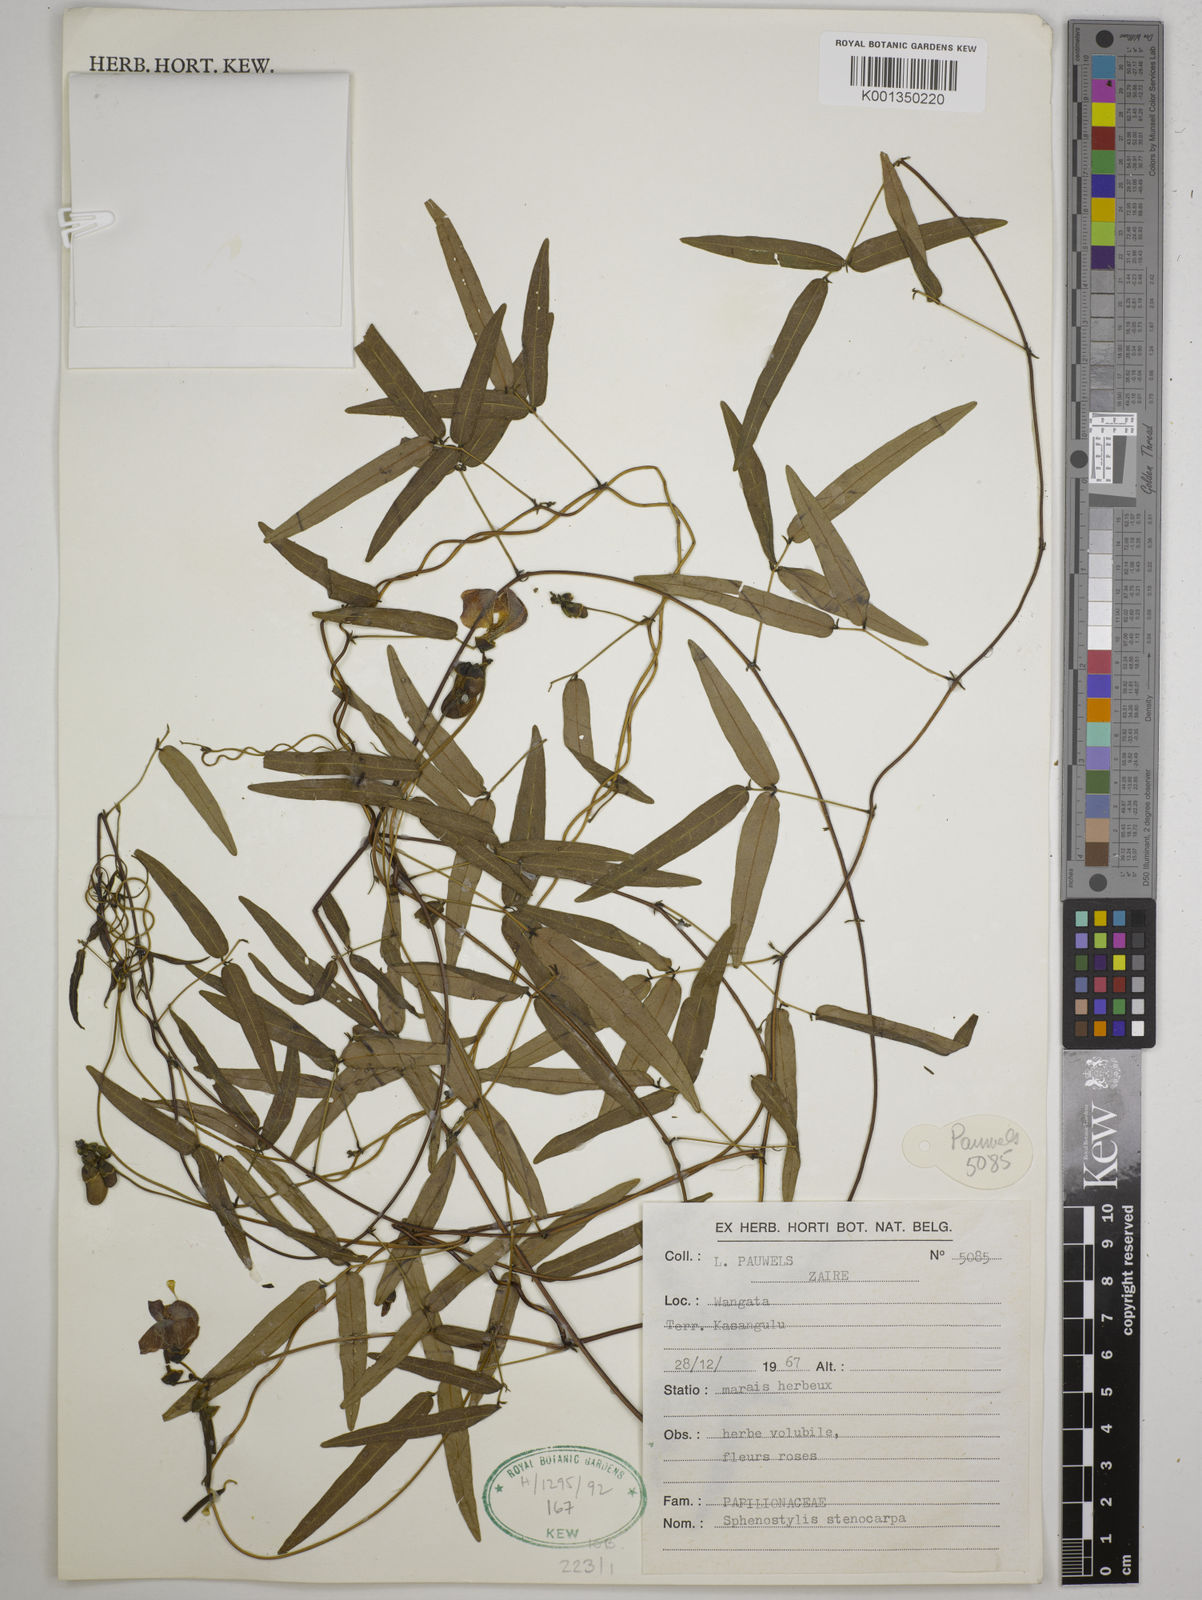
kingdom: Plantae
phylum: Tracheophyta
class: Magnoliopsida
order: Fabales
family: Fabaceae
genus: Sphenostylis
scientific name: Sphenostylis stenocarpa
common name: Yam-pea
